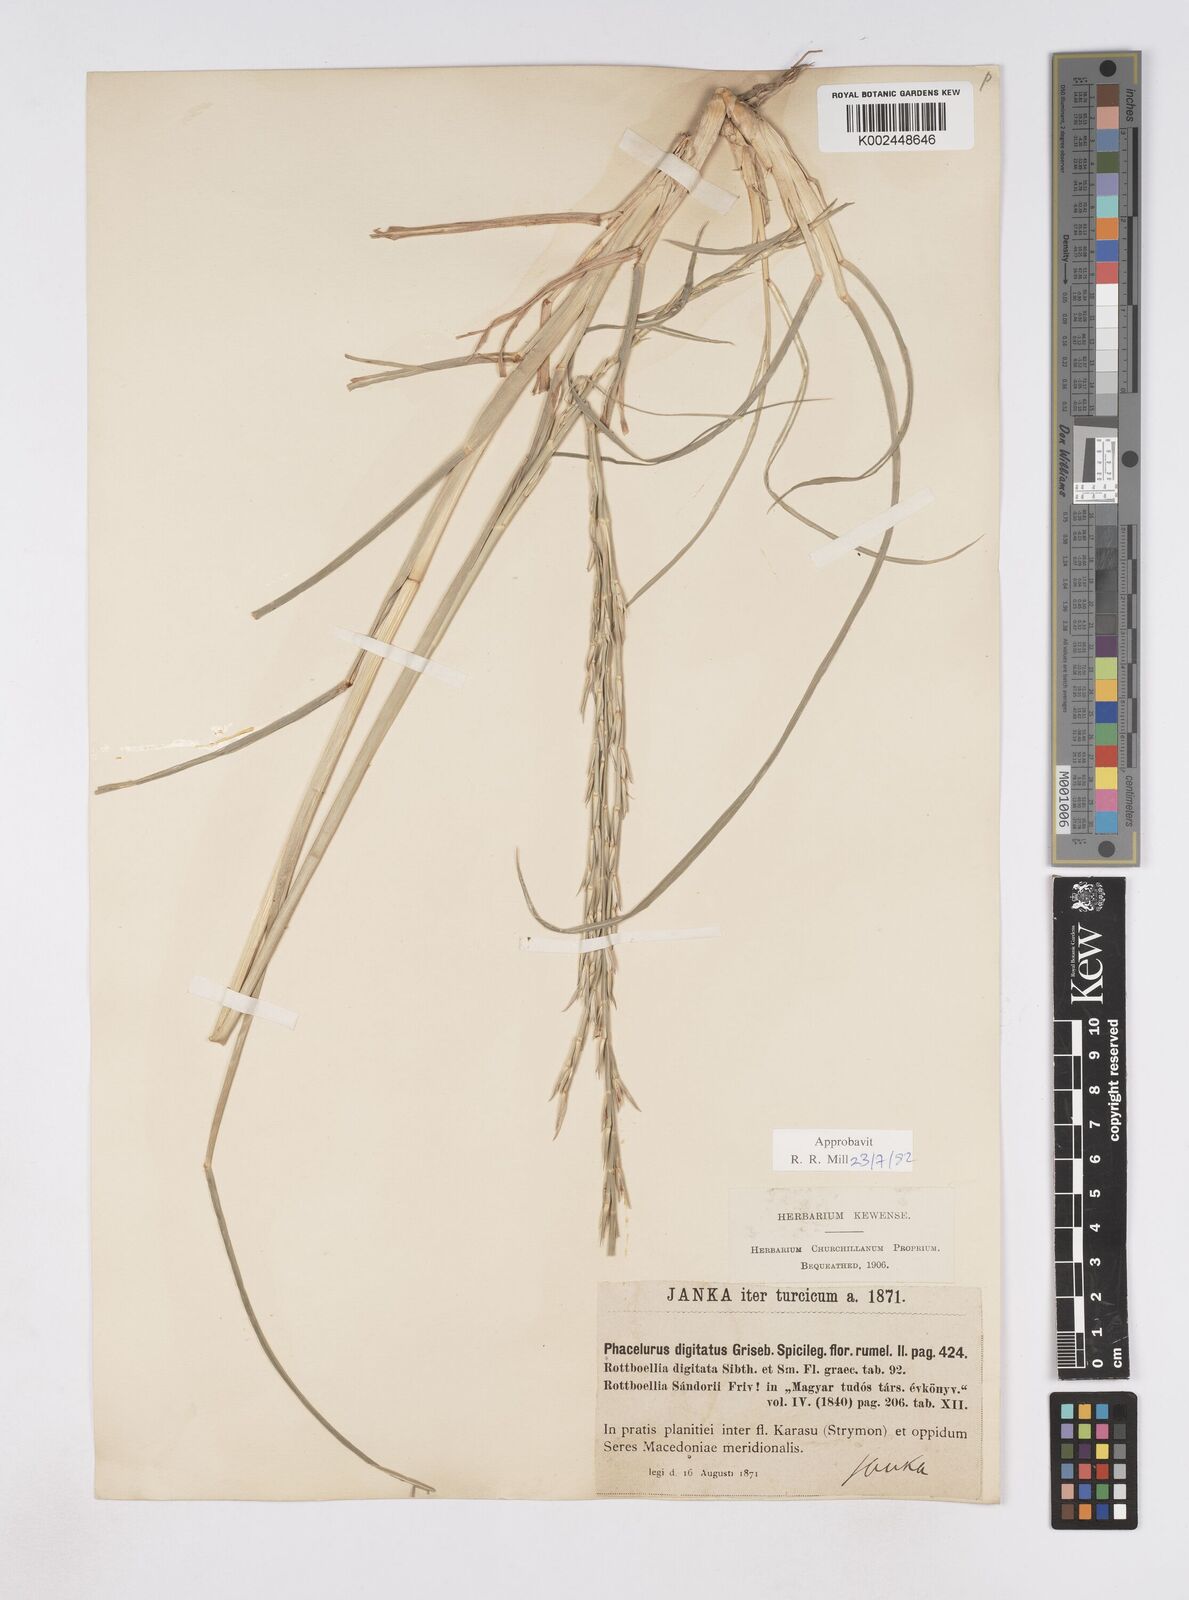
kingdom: Plantae
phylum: Tracheophyta
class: Liliopsida
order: Poales
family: Poaceae
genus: Phacelurus
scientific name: Phacelurus digitatus
